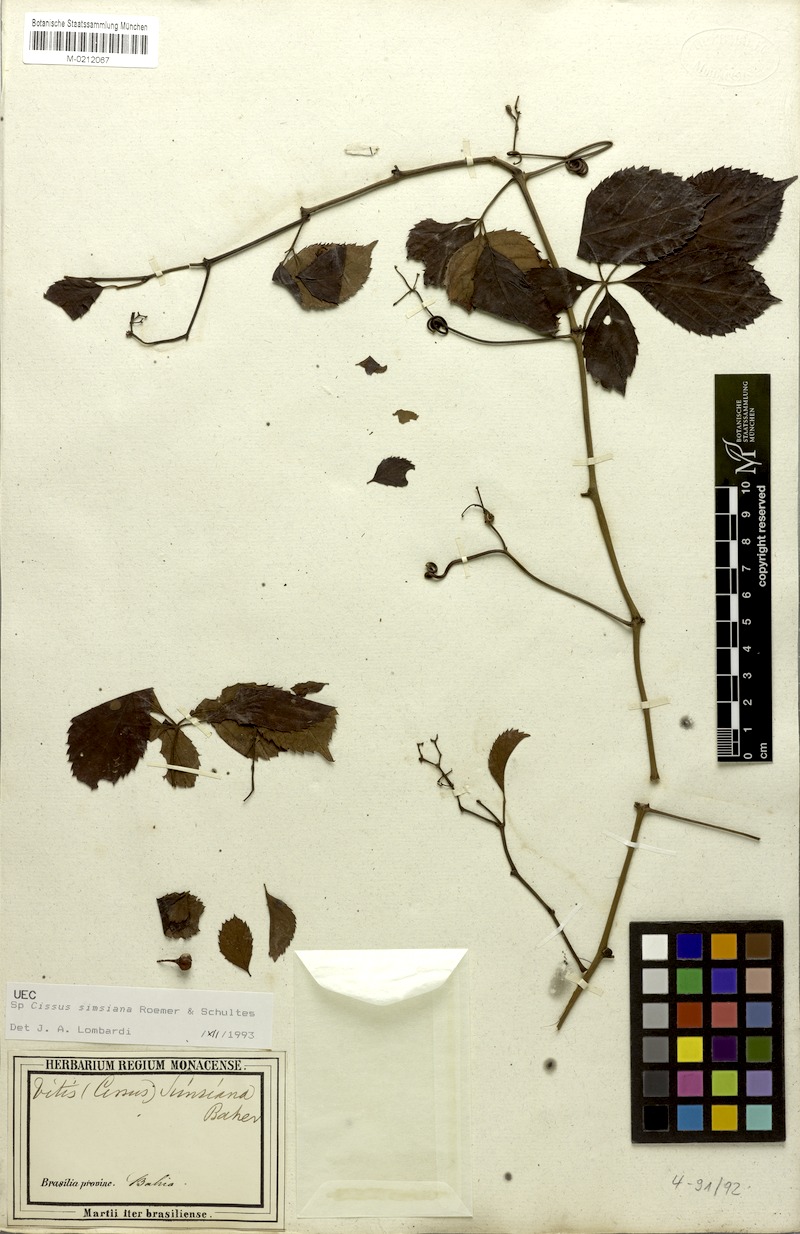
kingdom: Plantae
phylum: Tracheophyta
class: Magnoliopsida
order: Vitales
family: Vitaceae
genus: Clematicissus
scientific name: Clematicissus simsiana
